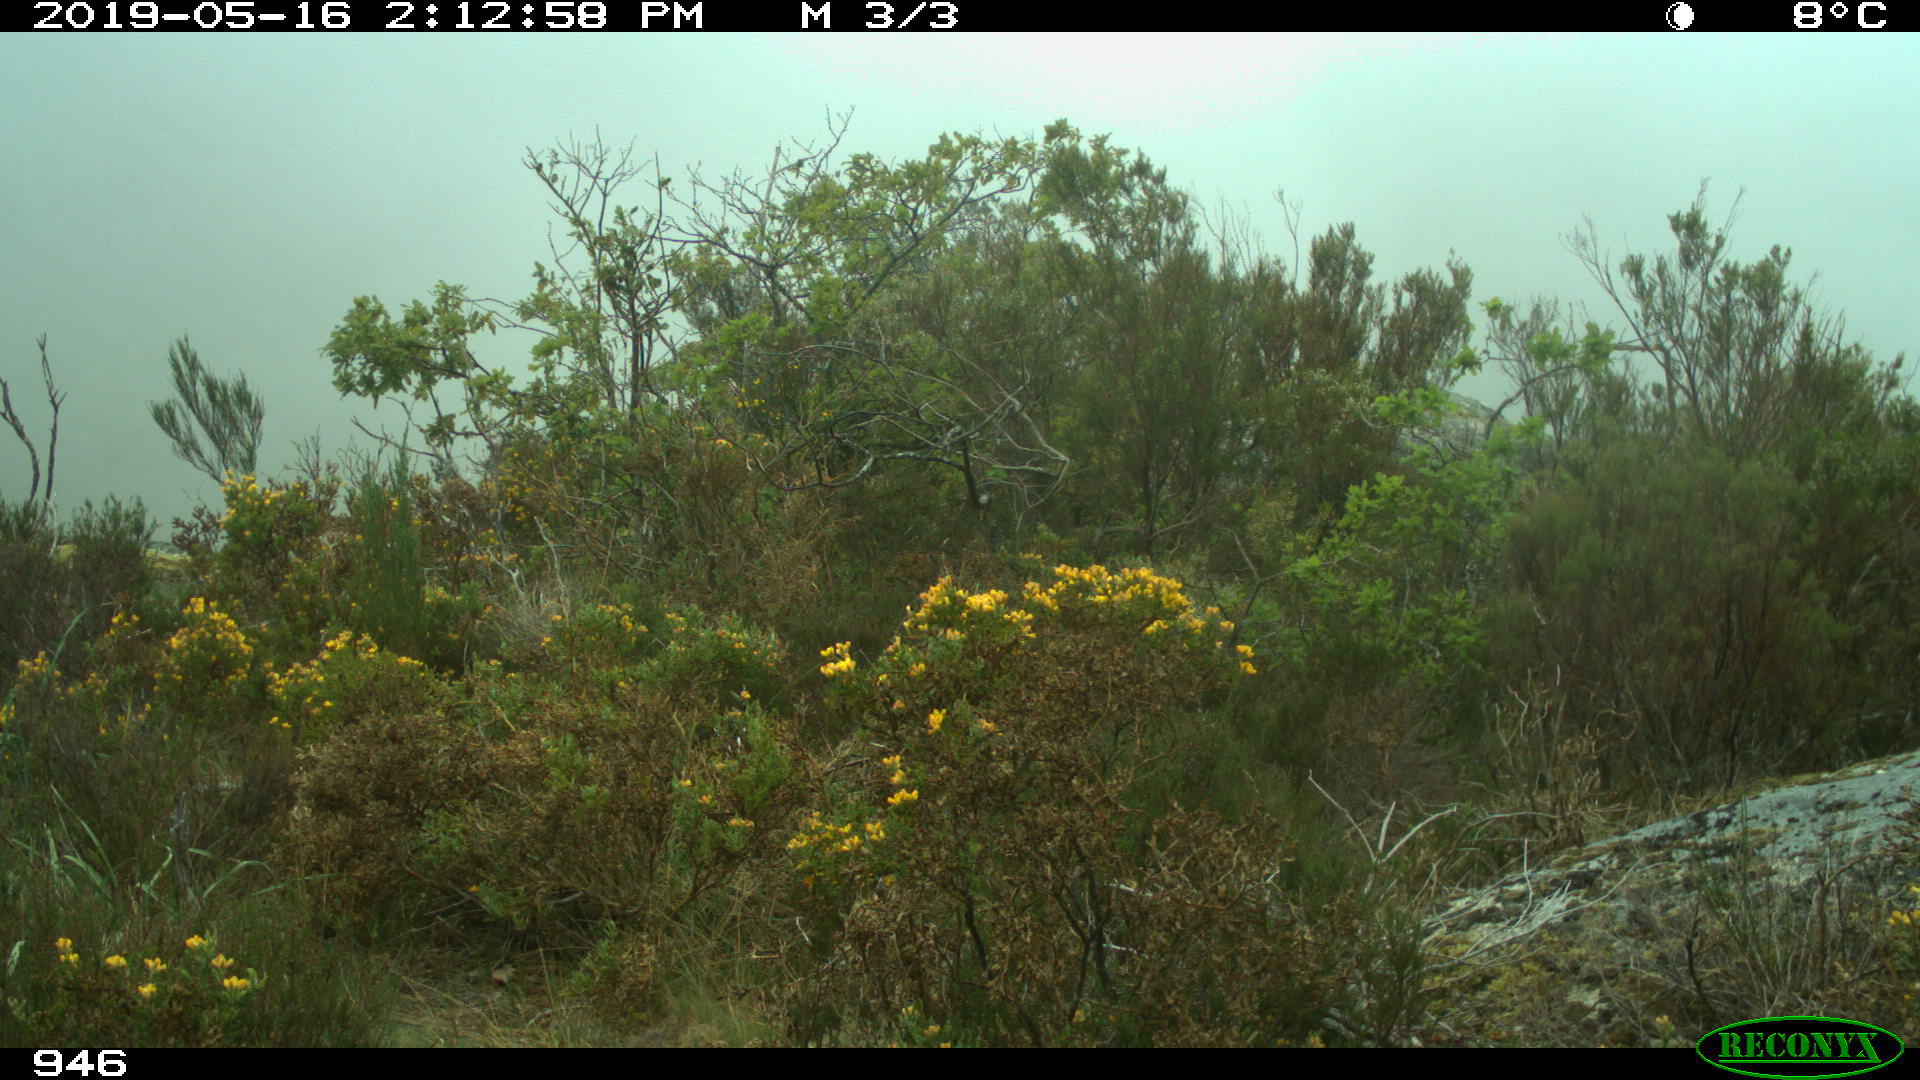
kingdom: Animalia
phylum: Chordata
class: Mammalia
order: Artiodactyla
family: Cervidae
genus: Capreolus
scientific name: Capreolus capreolus
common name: Western roe deer
